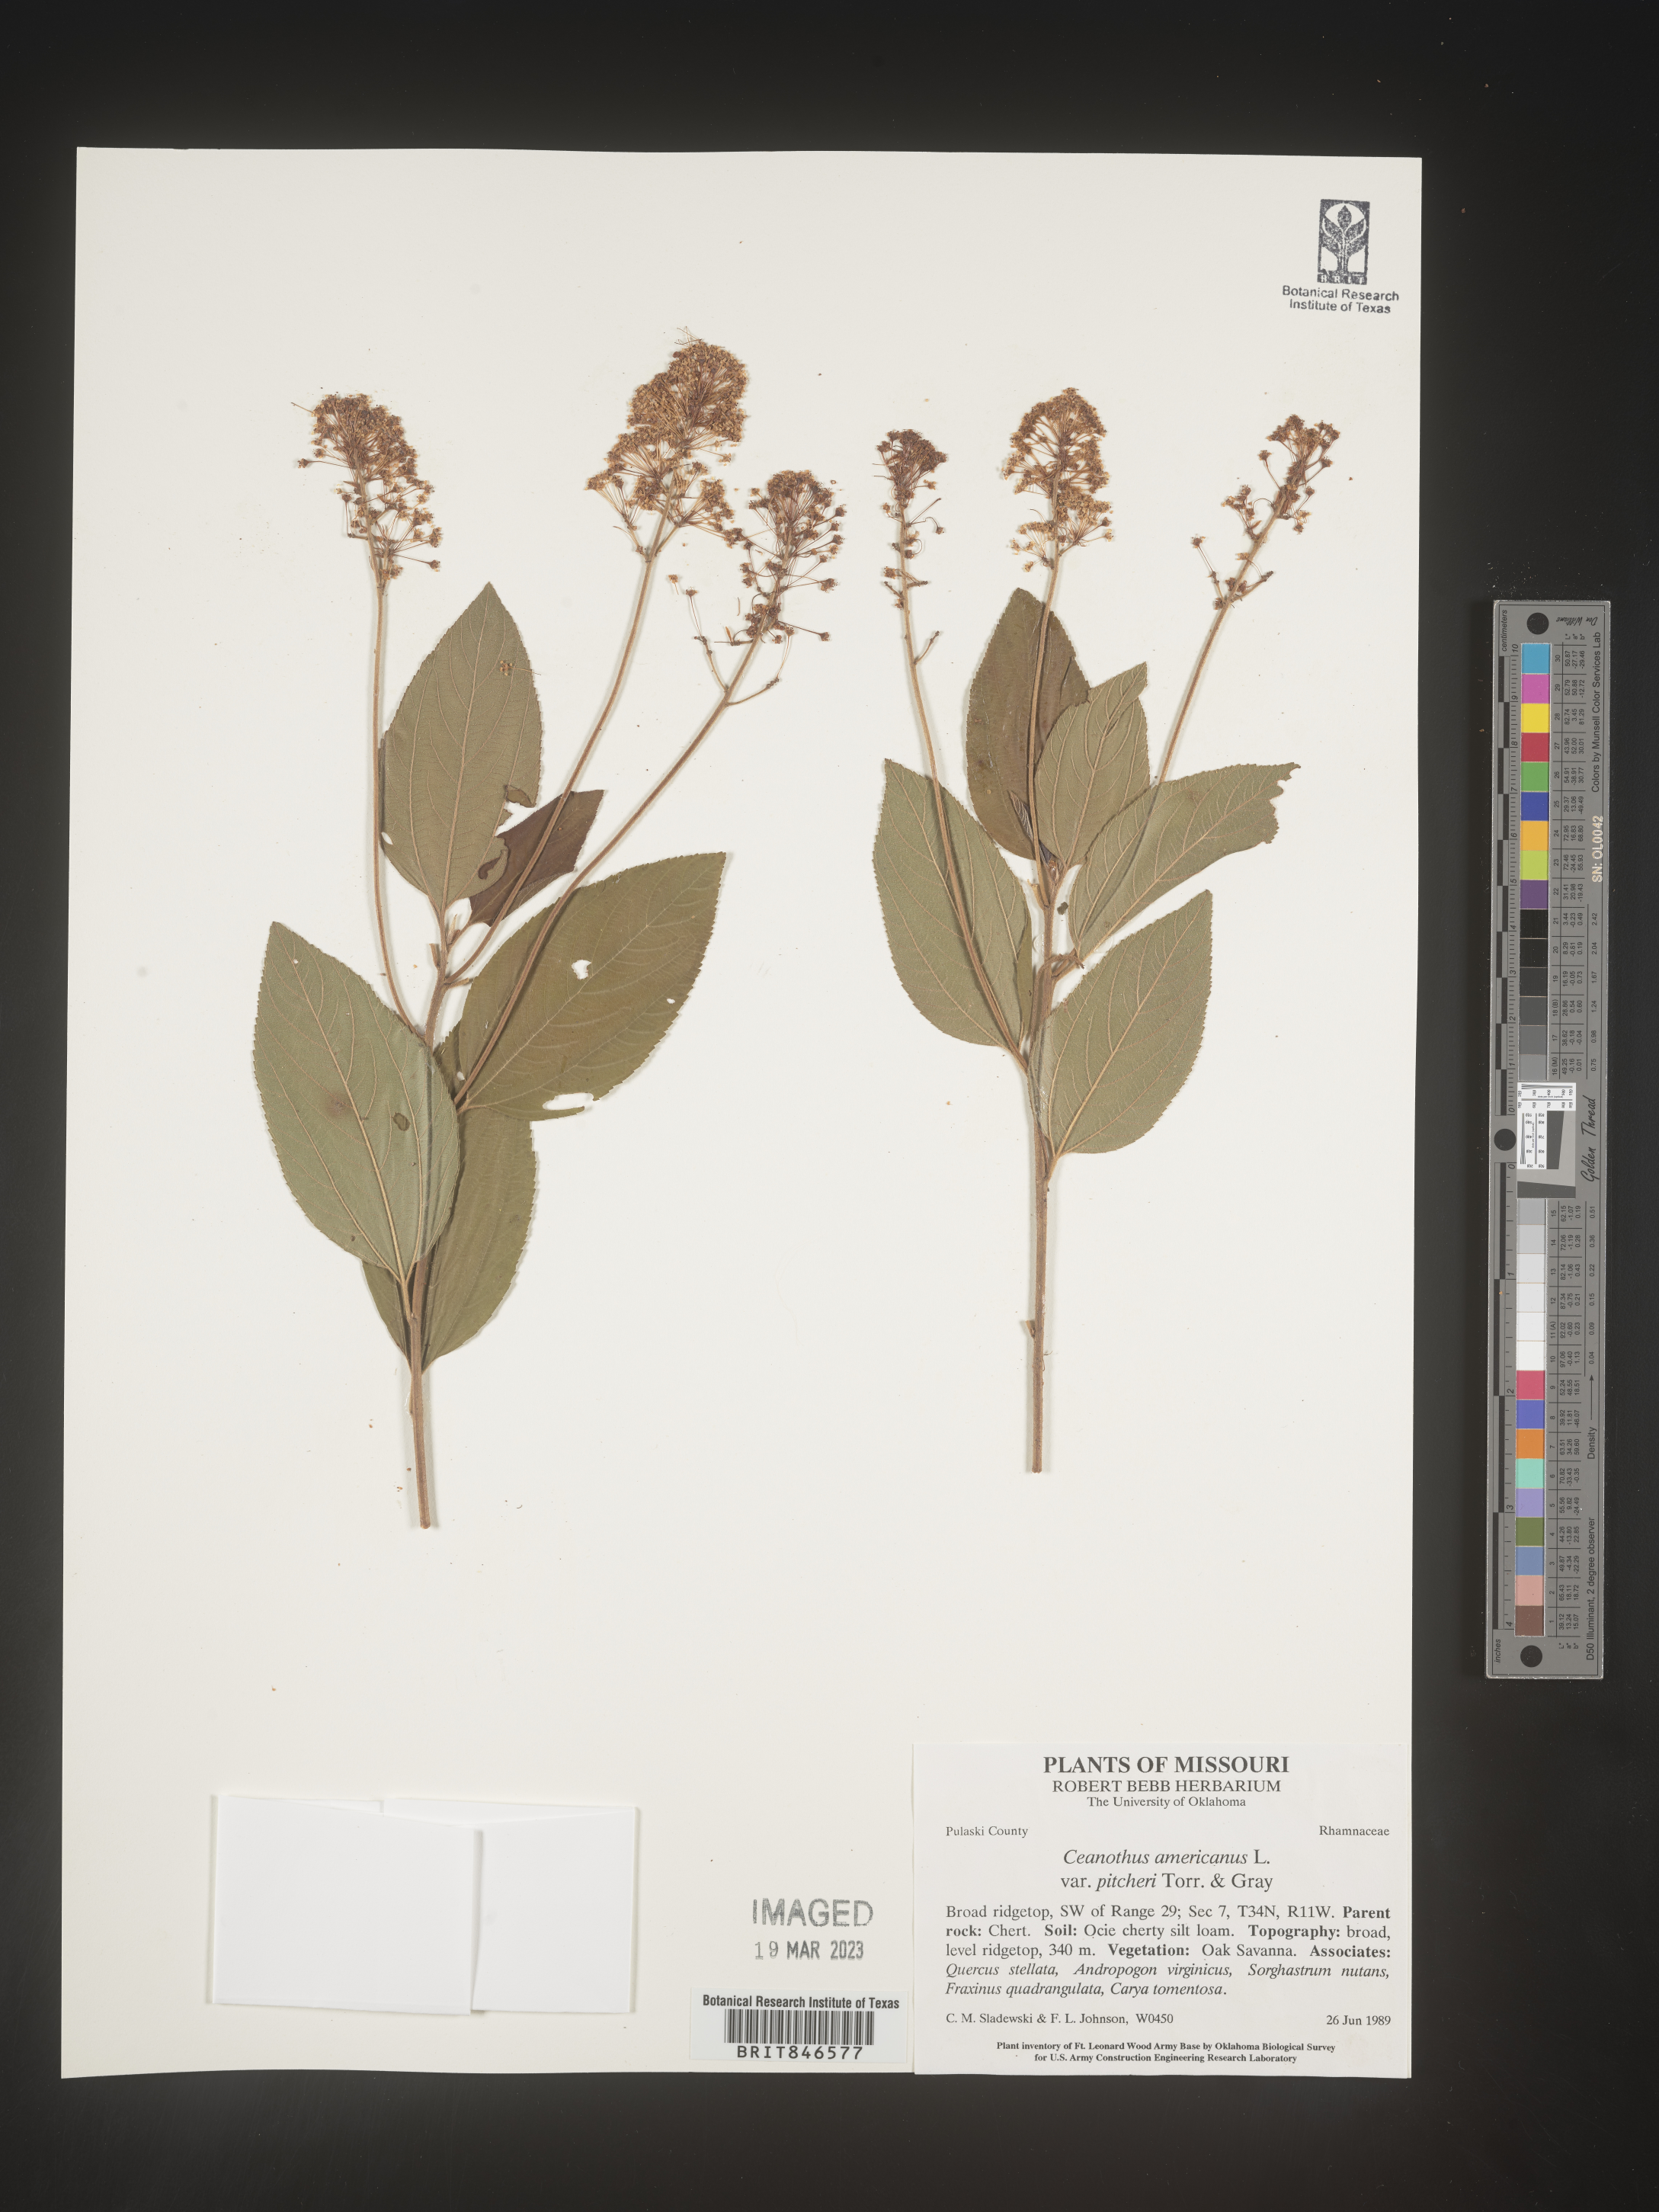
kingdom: Plantae
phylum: Tracheophyta
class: Magnoliopsida
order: Rosales
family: Rhamnaceae
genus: Ceanothus
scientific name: Ceanothus americanus
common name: Redroot
